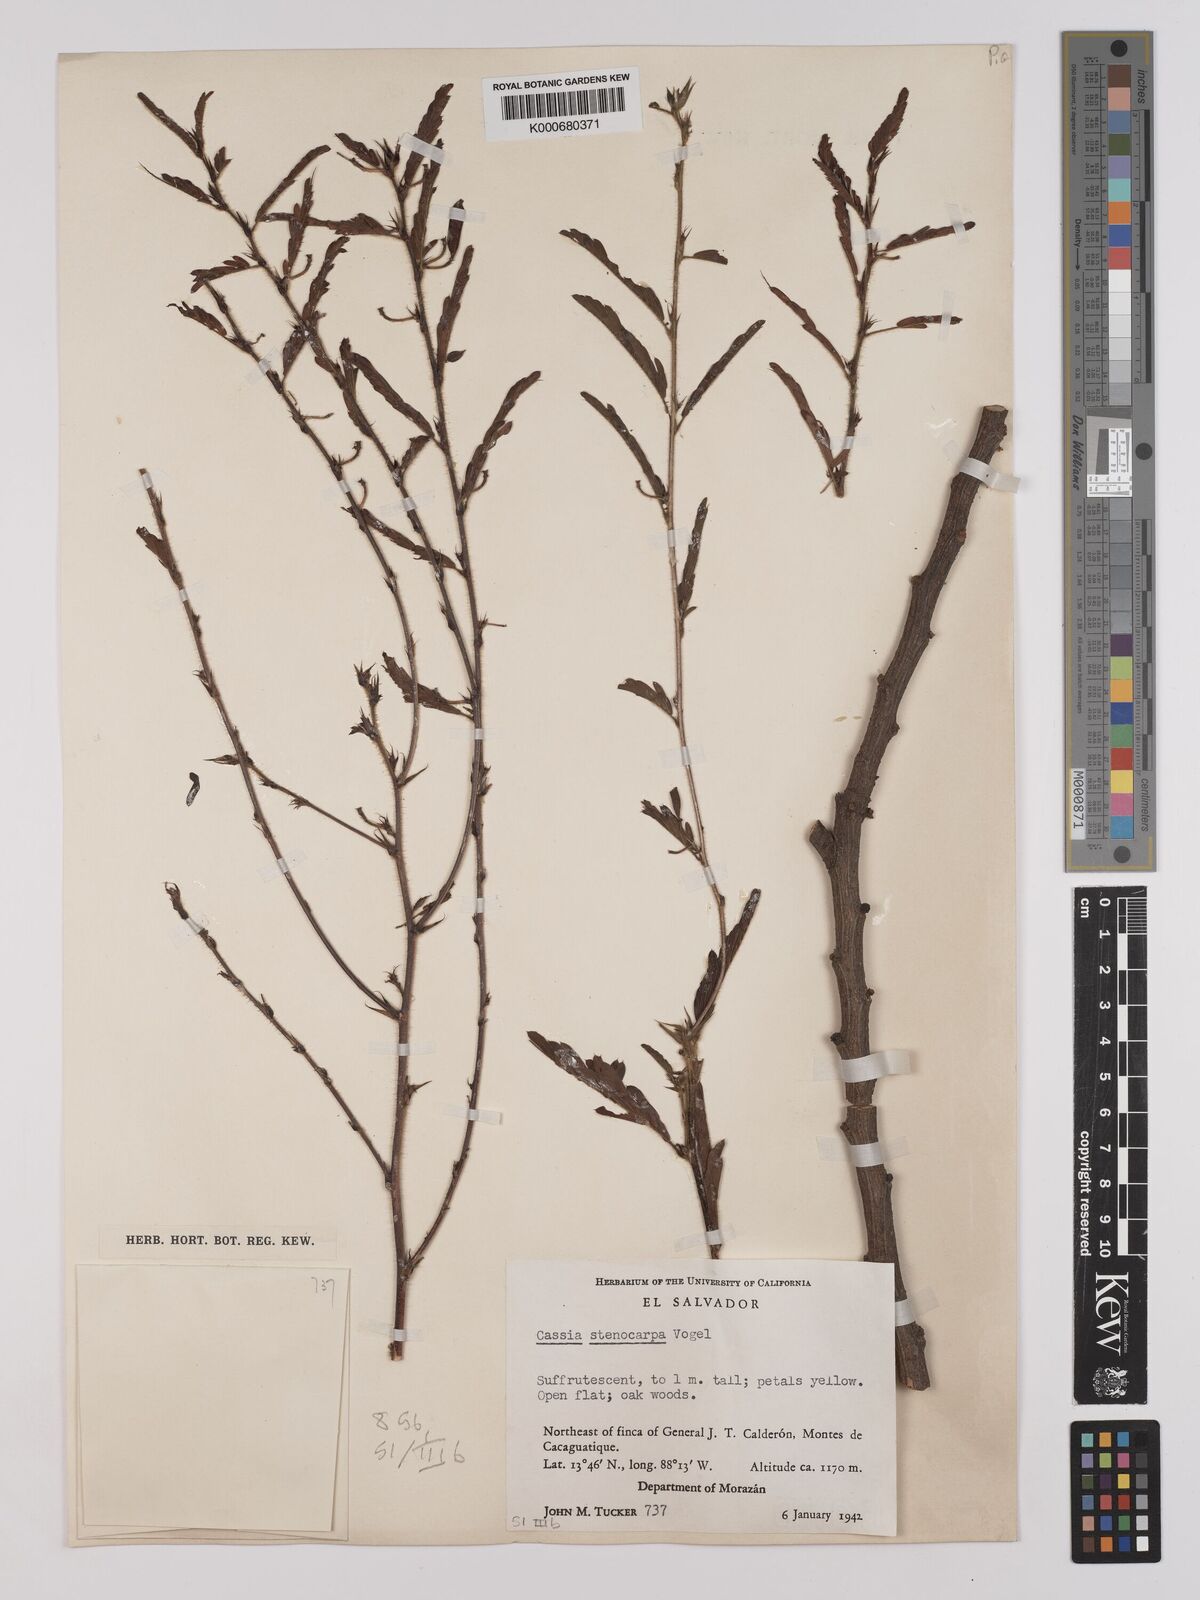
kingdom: Plantae
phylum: Tracheophyta
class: Magnoliopsida
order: Fabales
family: Fabaceae
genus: Chamaecrista
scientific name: Chamaecrista nictitans
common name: Sensitive cassia
